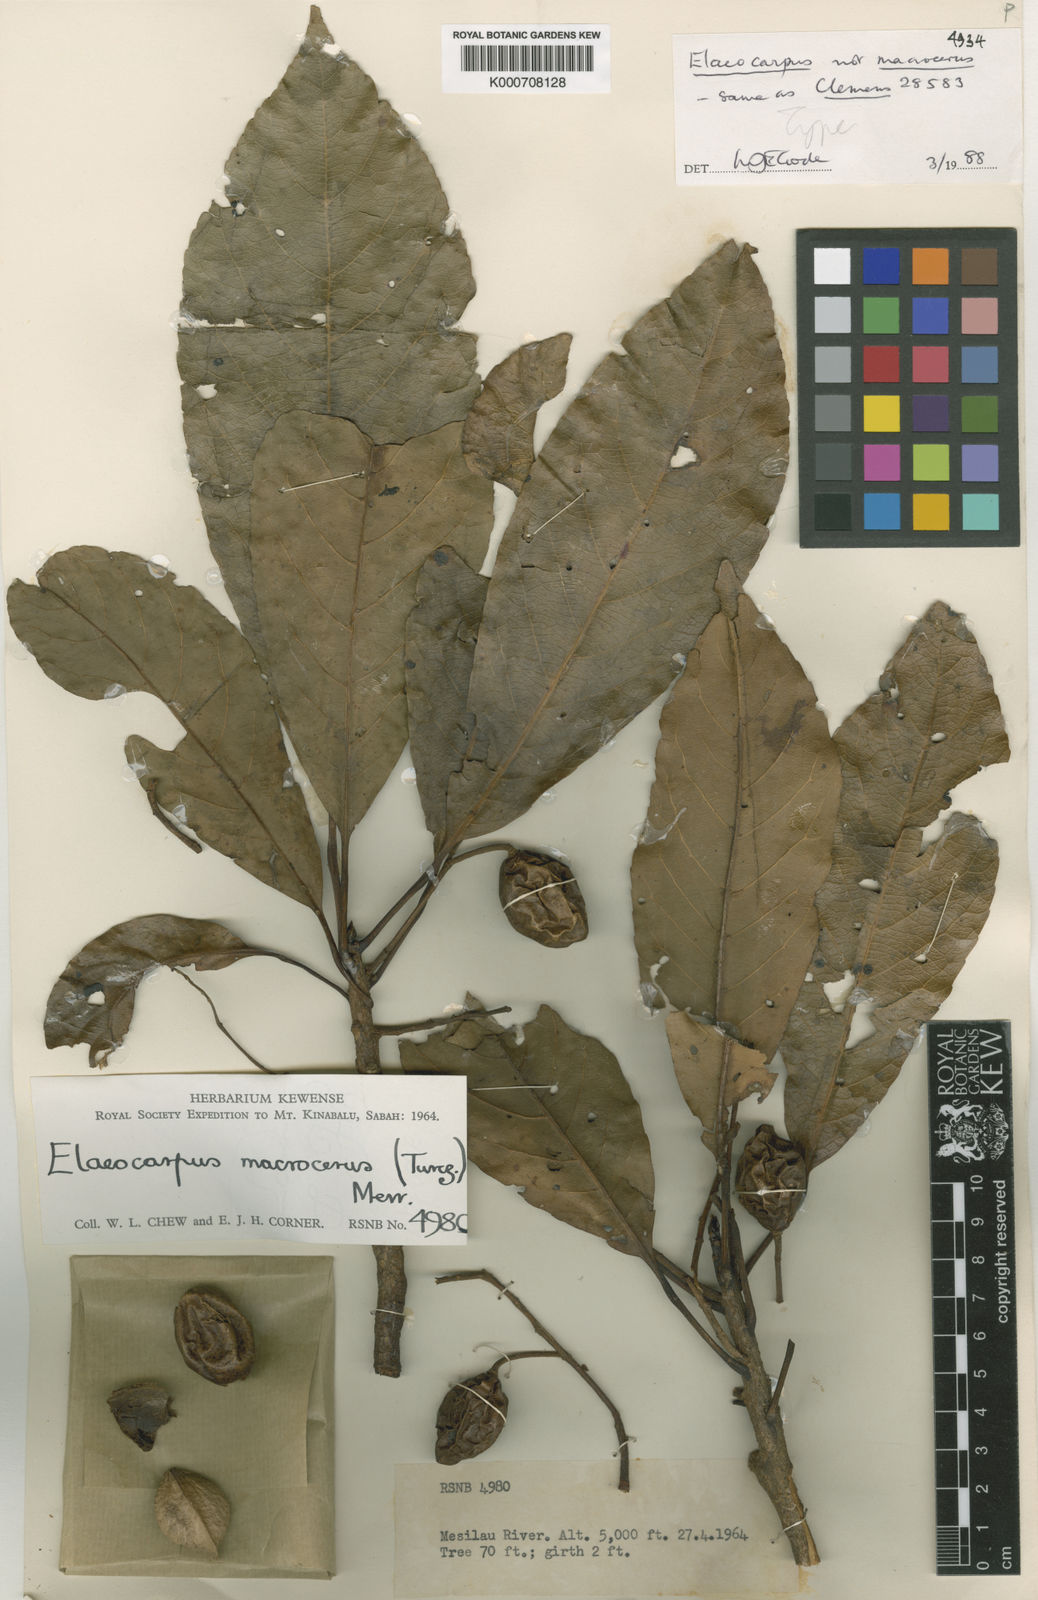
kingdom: Plantae
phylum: Tracheophyta
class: Magnoliopsida
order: Oxalidales
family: Elaeocarpaceae
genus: Elaeocarpus
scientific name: Elaeocarpus chewii
